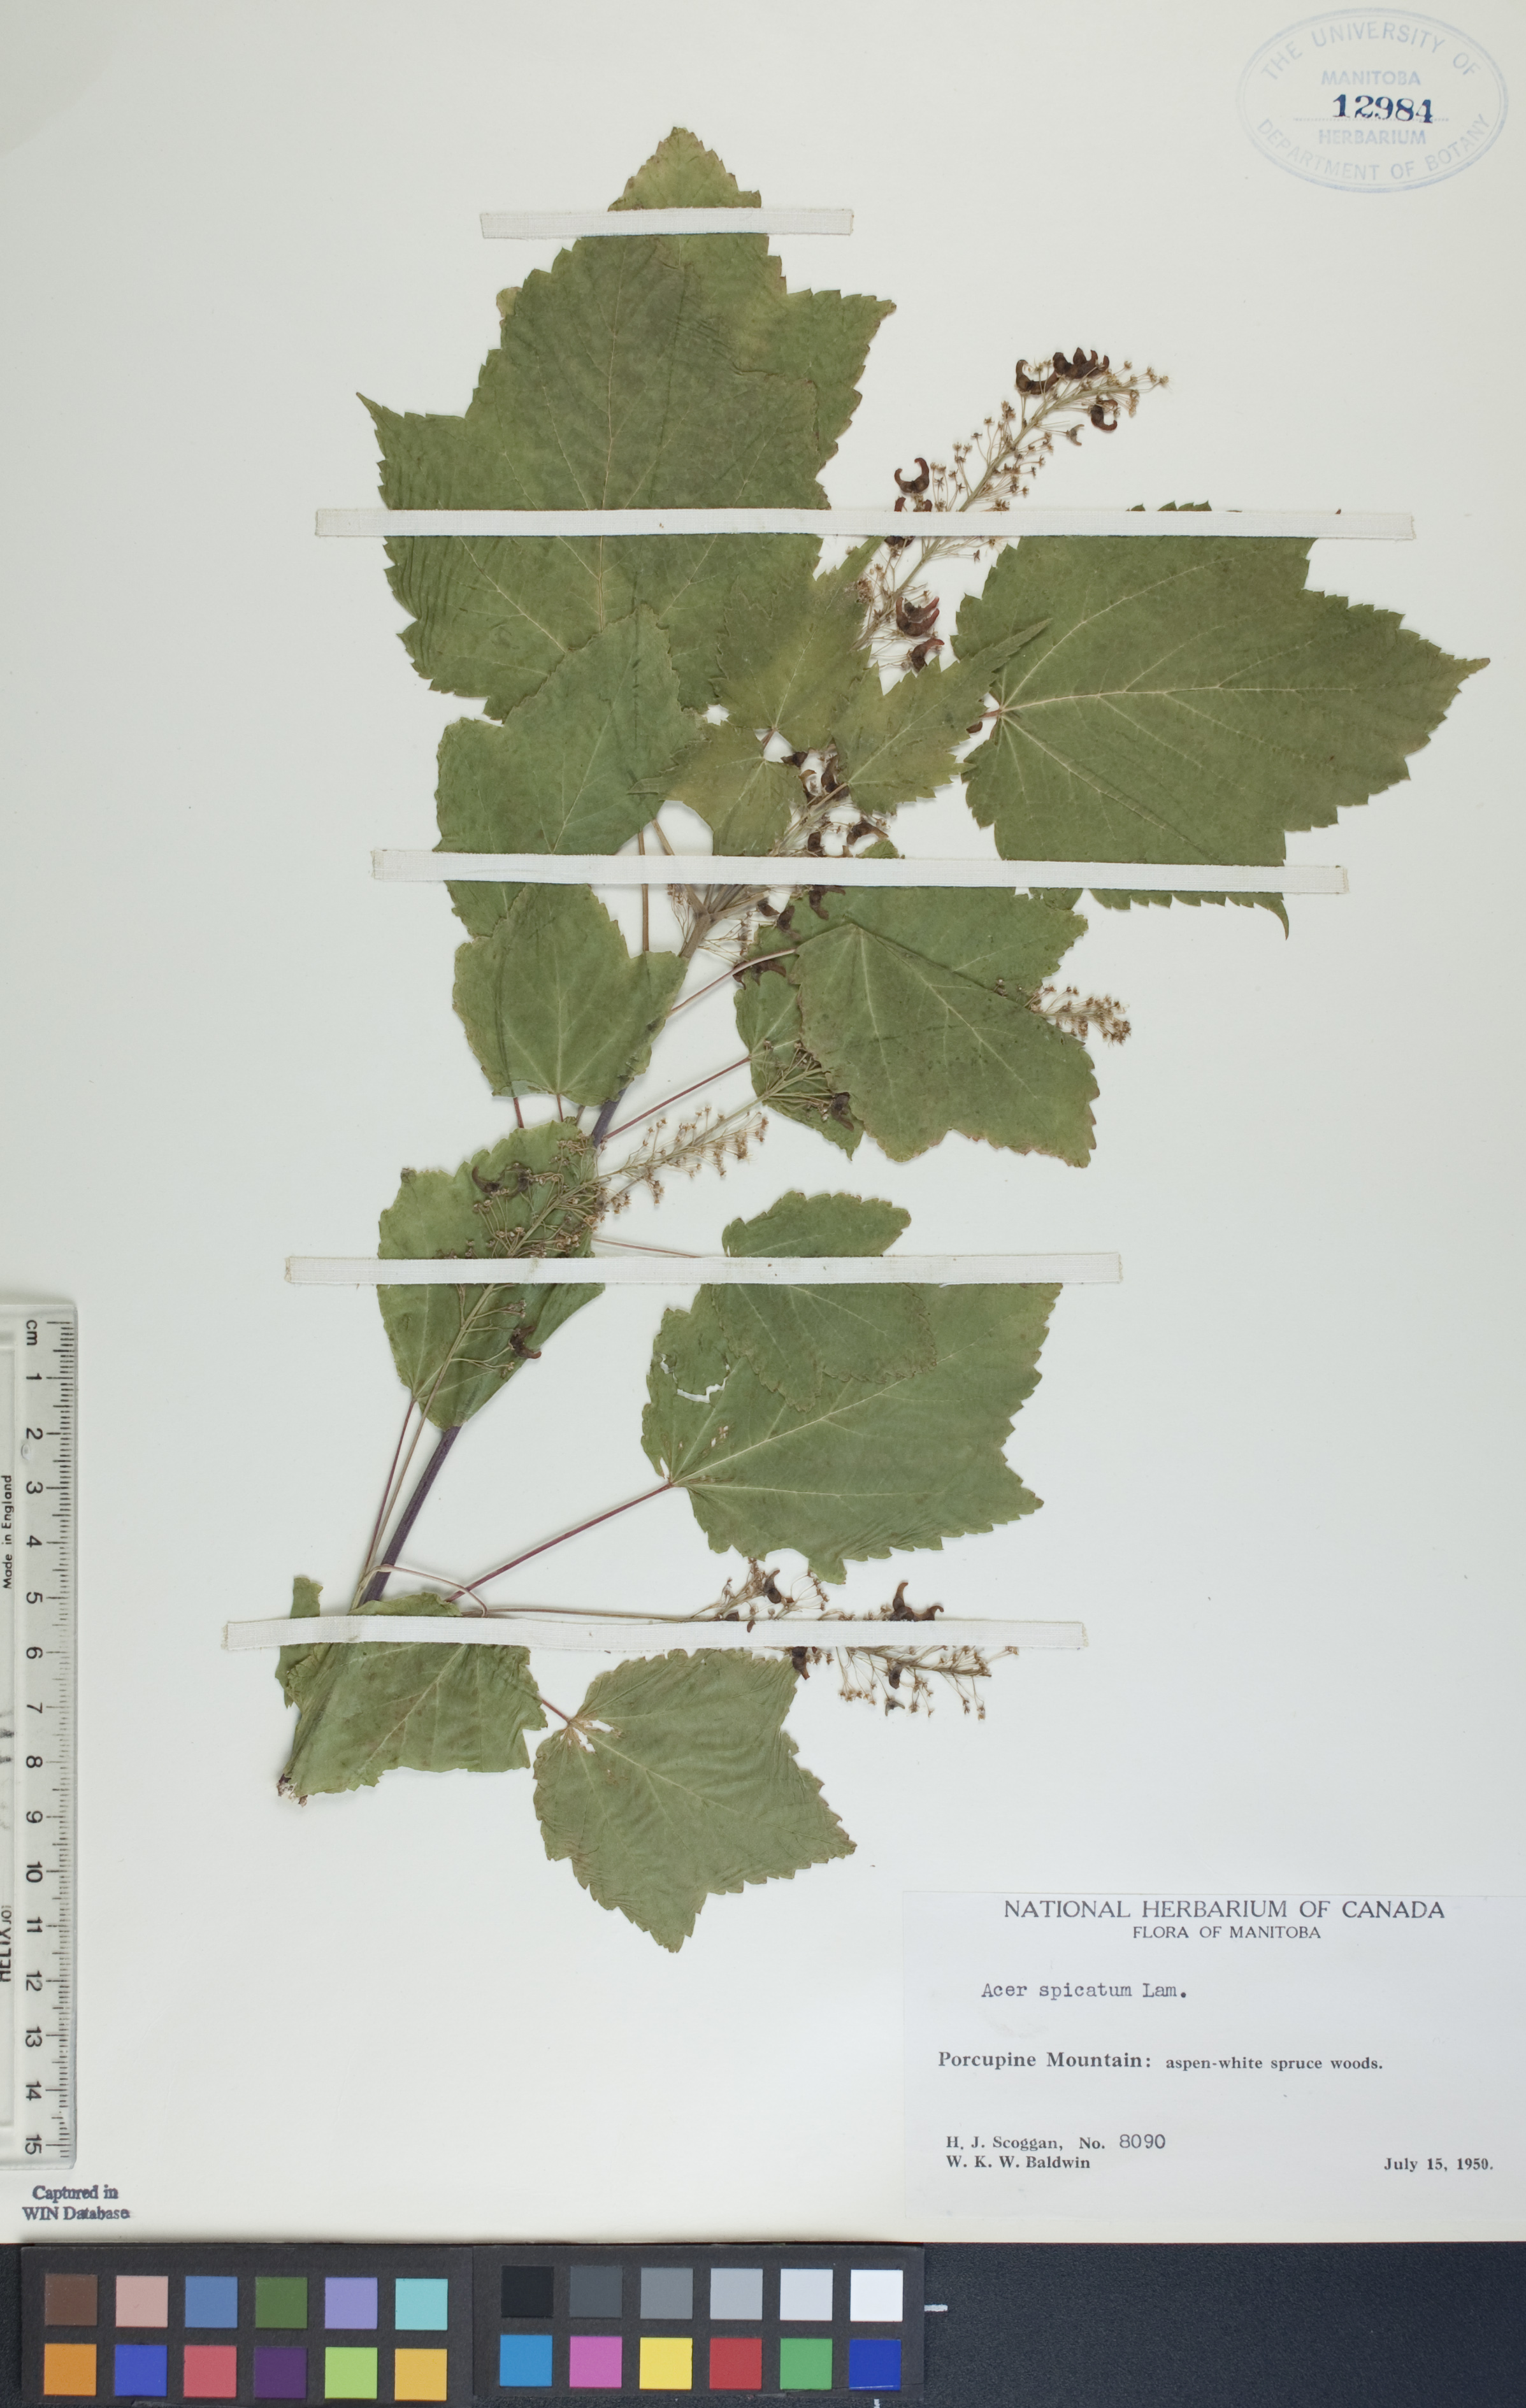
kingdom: Plantae
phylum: Tracheophyta
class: Magnoliopsida
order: Sapindales
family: Sapindaceae
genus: Acer
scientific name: Acer spicatum
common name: Mountain maple
